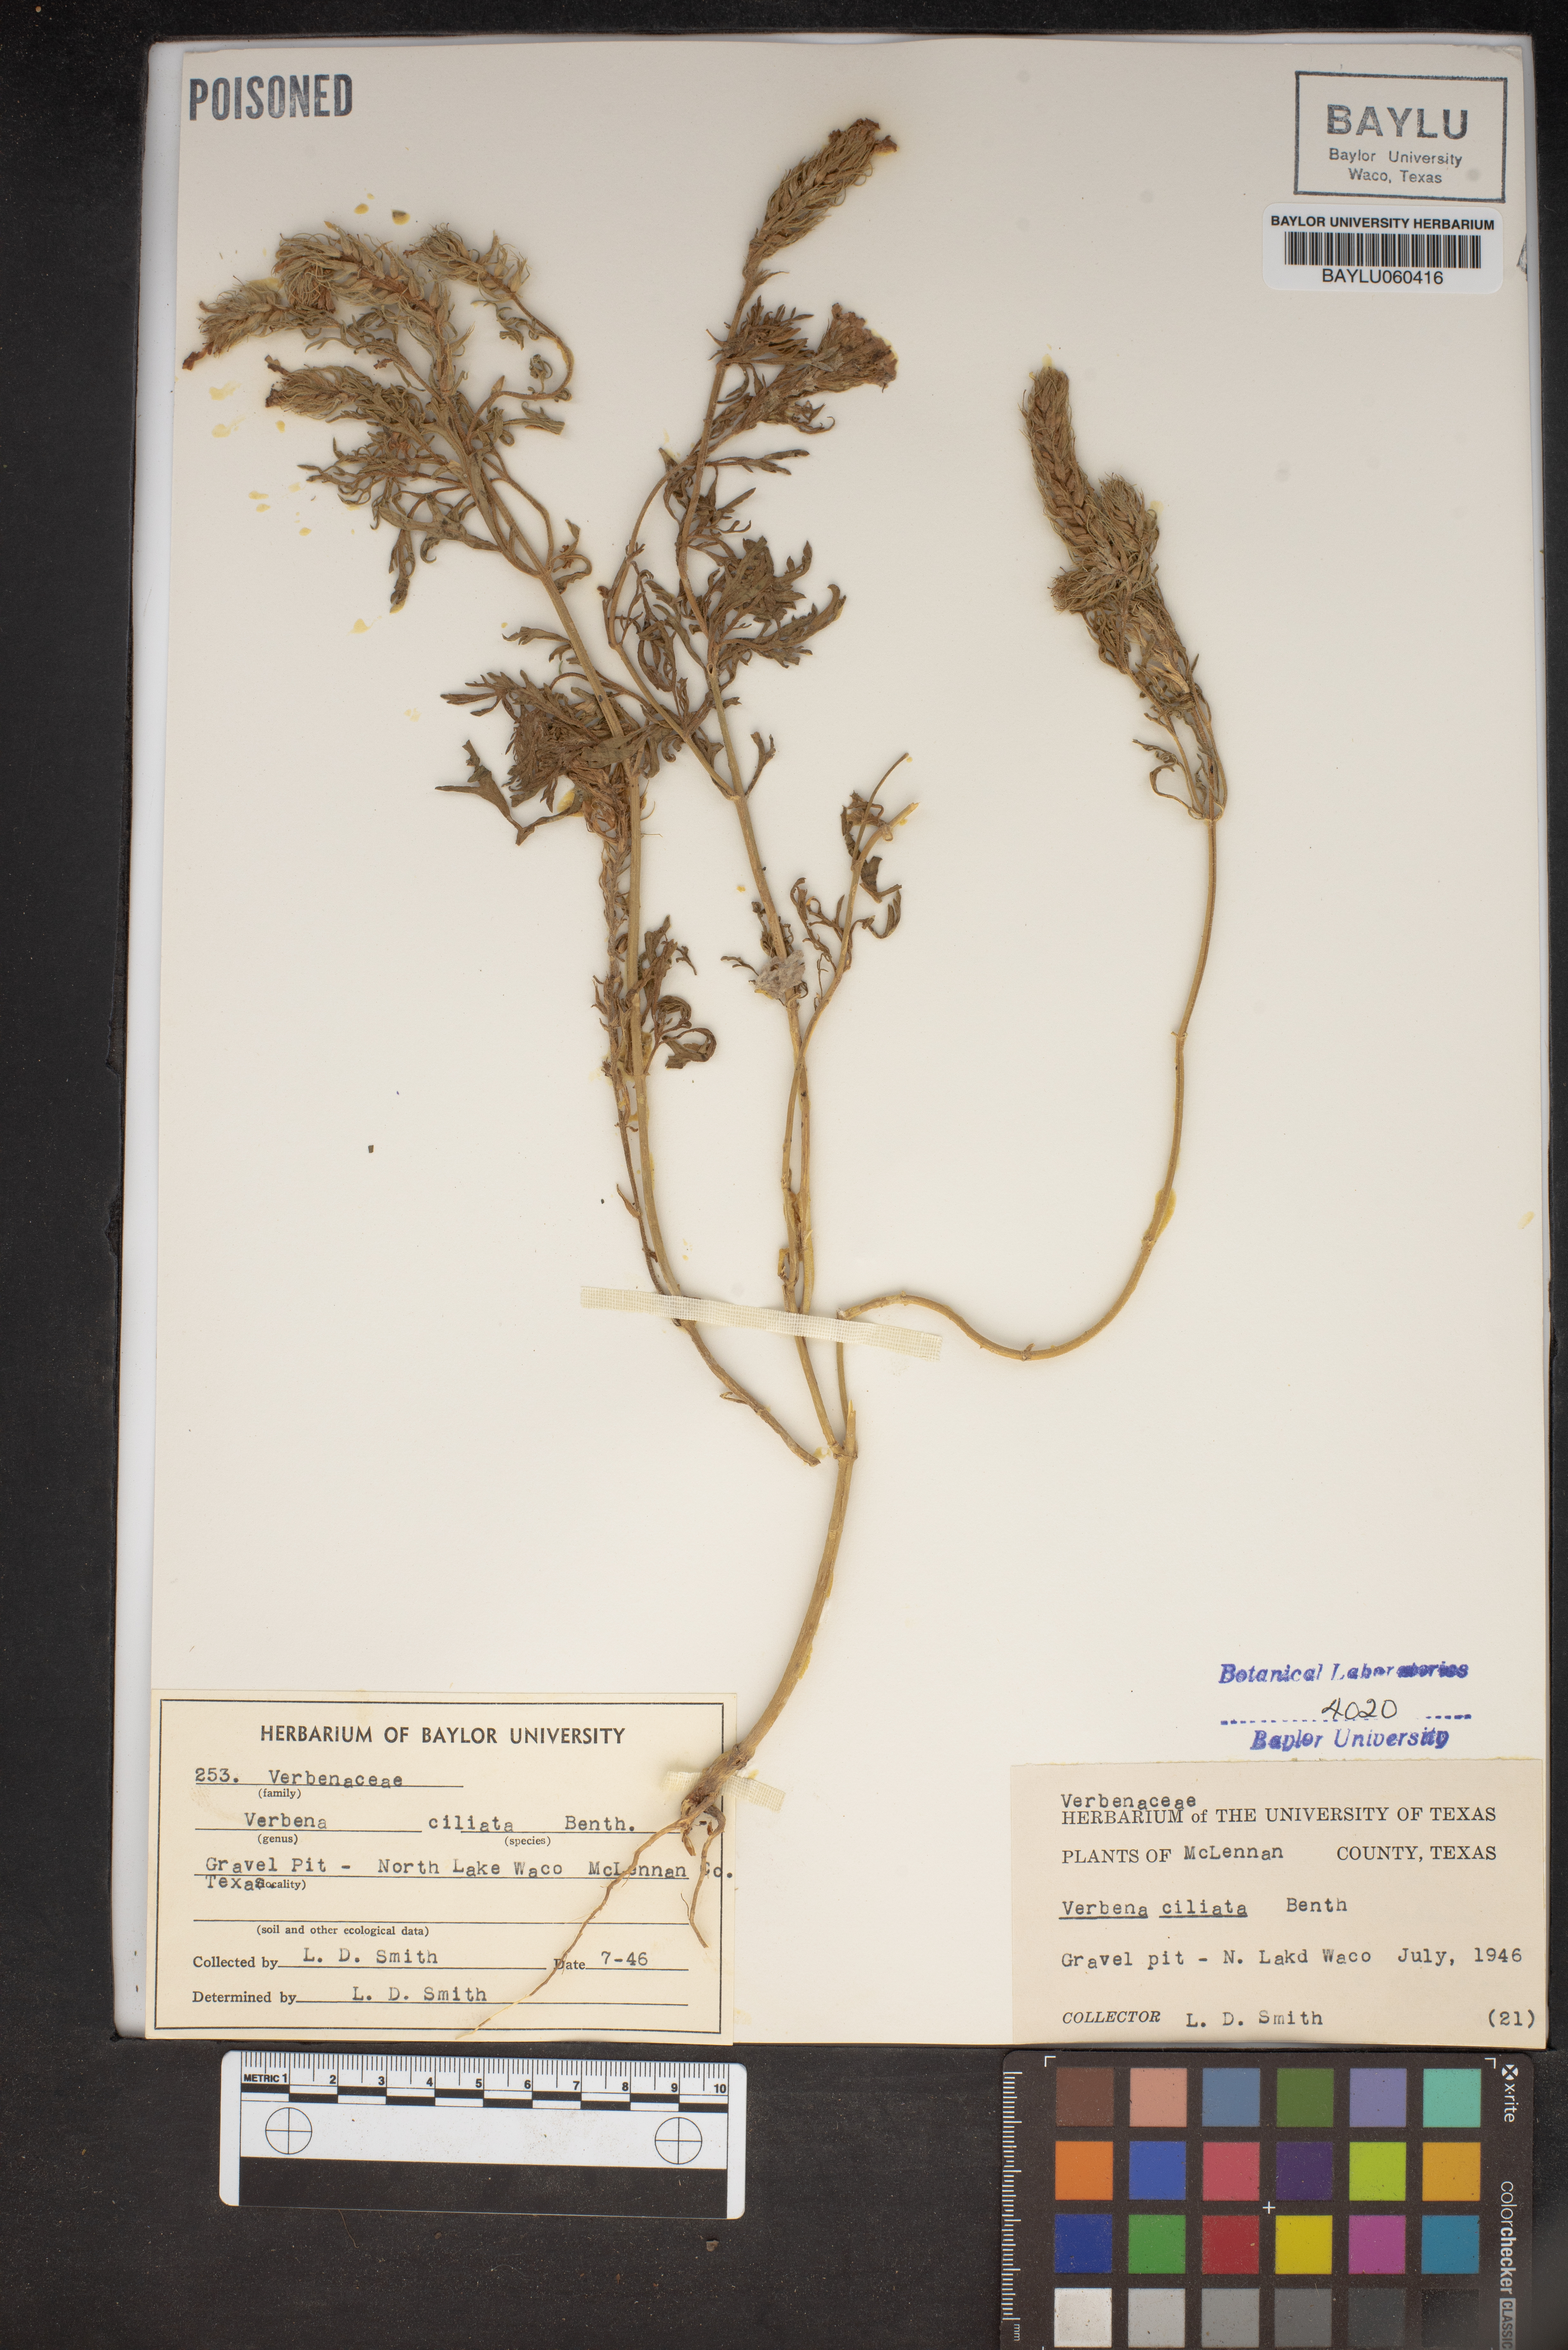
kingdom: Plantae
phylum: Tracheophyta
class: Magnoliopsida
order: Lamiales
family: Verbenaceae
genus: Verbena
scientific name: Verbena bipinnatifida
